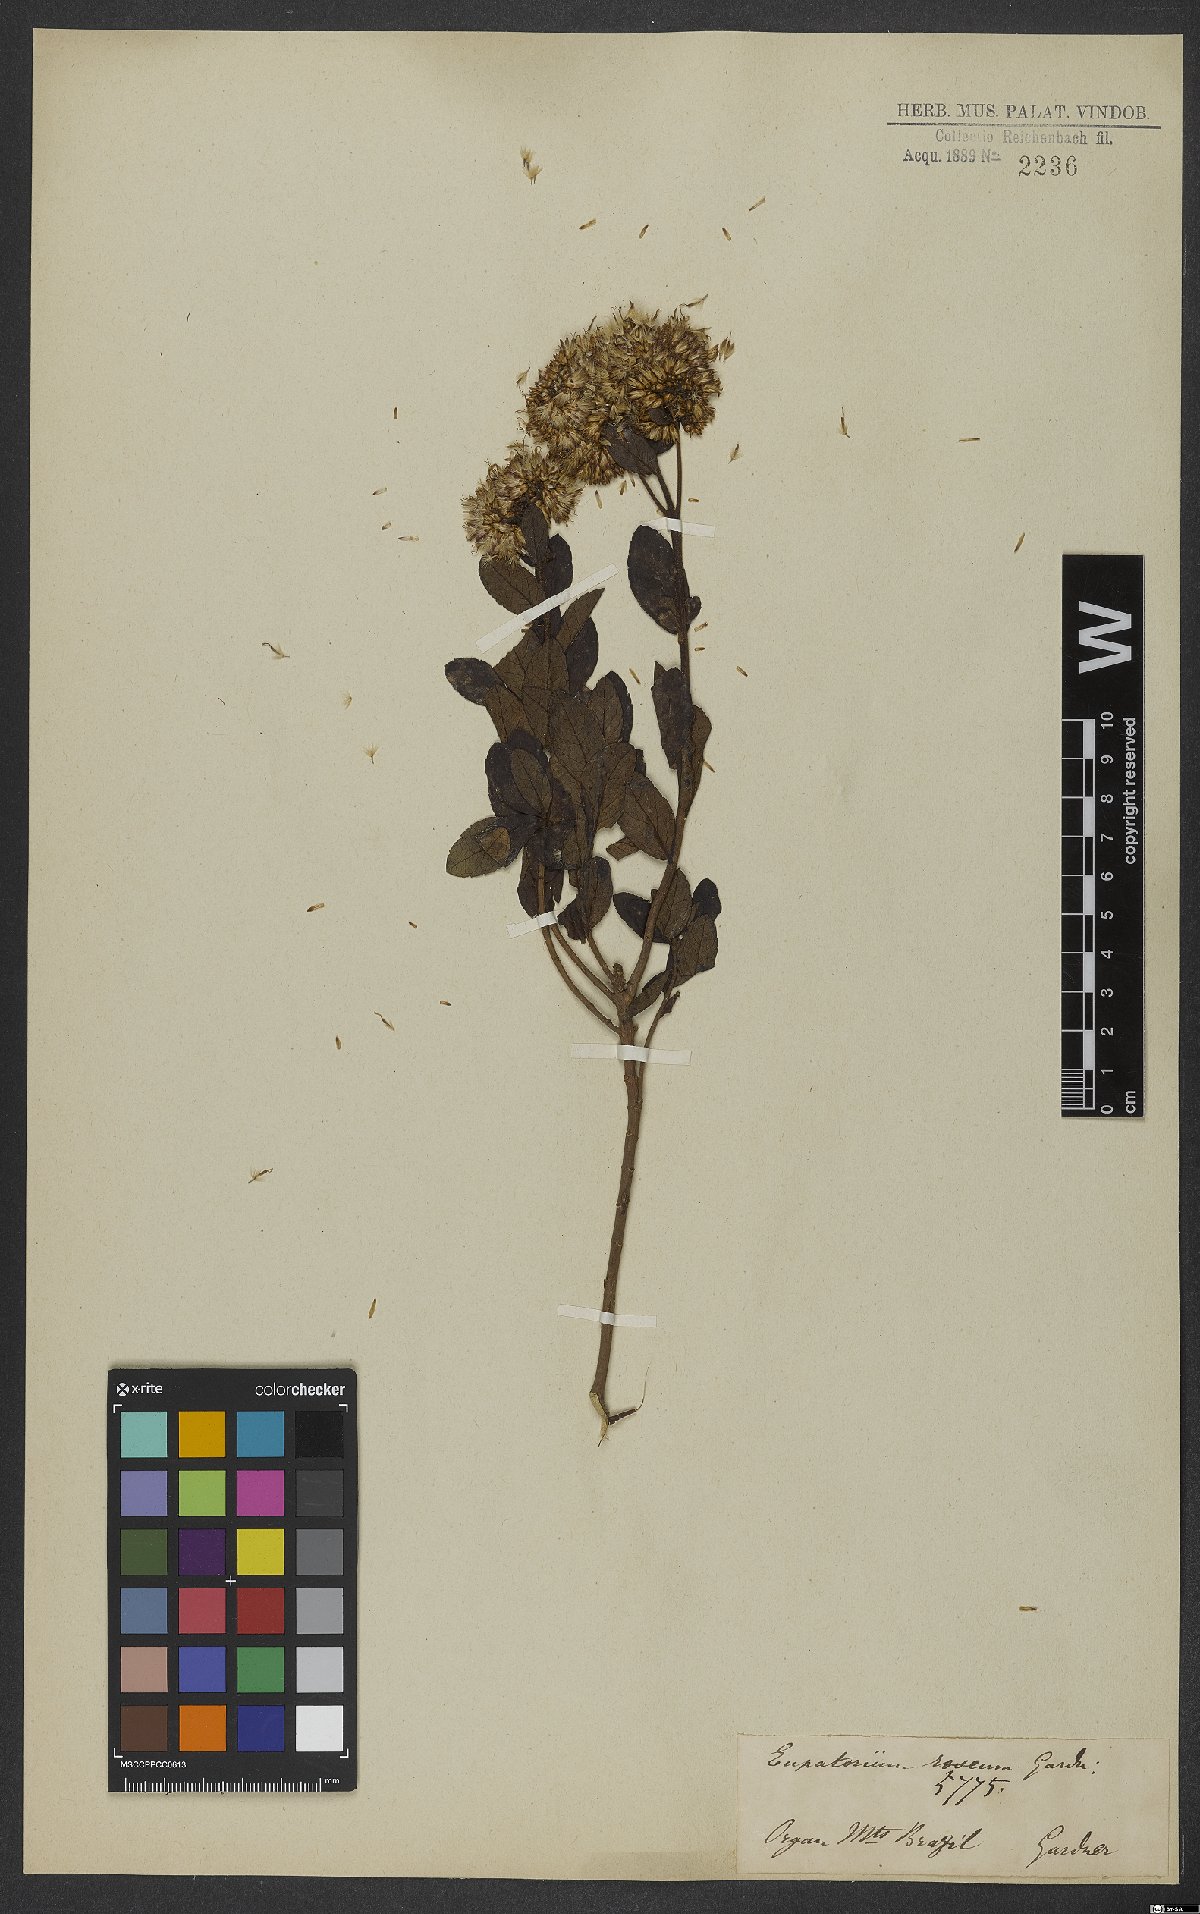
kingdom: Plantae
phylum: Tracheophyta
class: Magnoliopsida
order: Asterales
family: Asteraceae
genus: Austrocritonia
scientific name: Austrocritonia rosea
